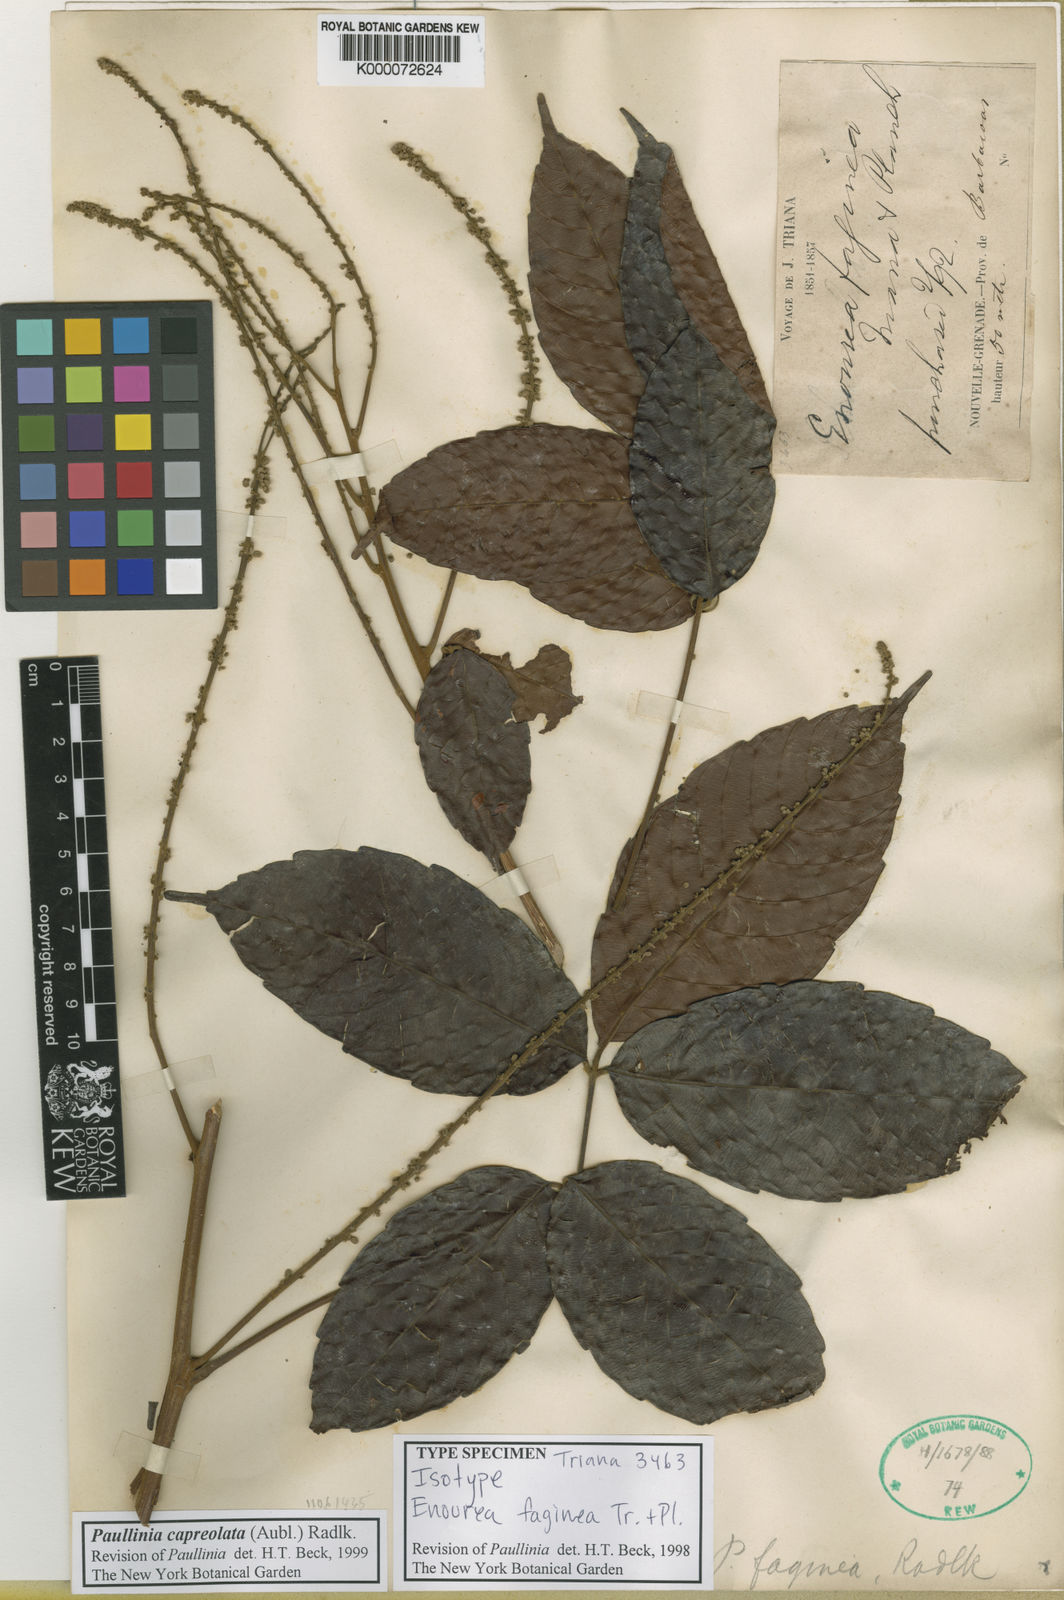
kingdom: Plantae
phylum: Tracheophyta
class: Magnoliopsida
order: Sapindales
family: Sapindaceae
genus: Paullinia
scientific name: Paullinia capreolata
